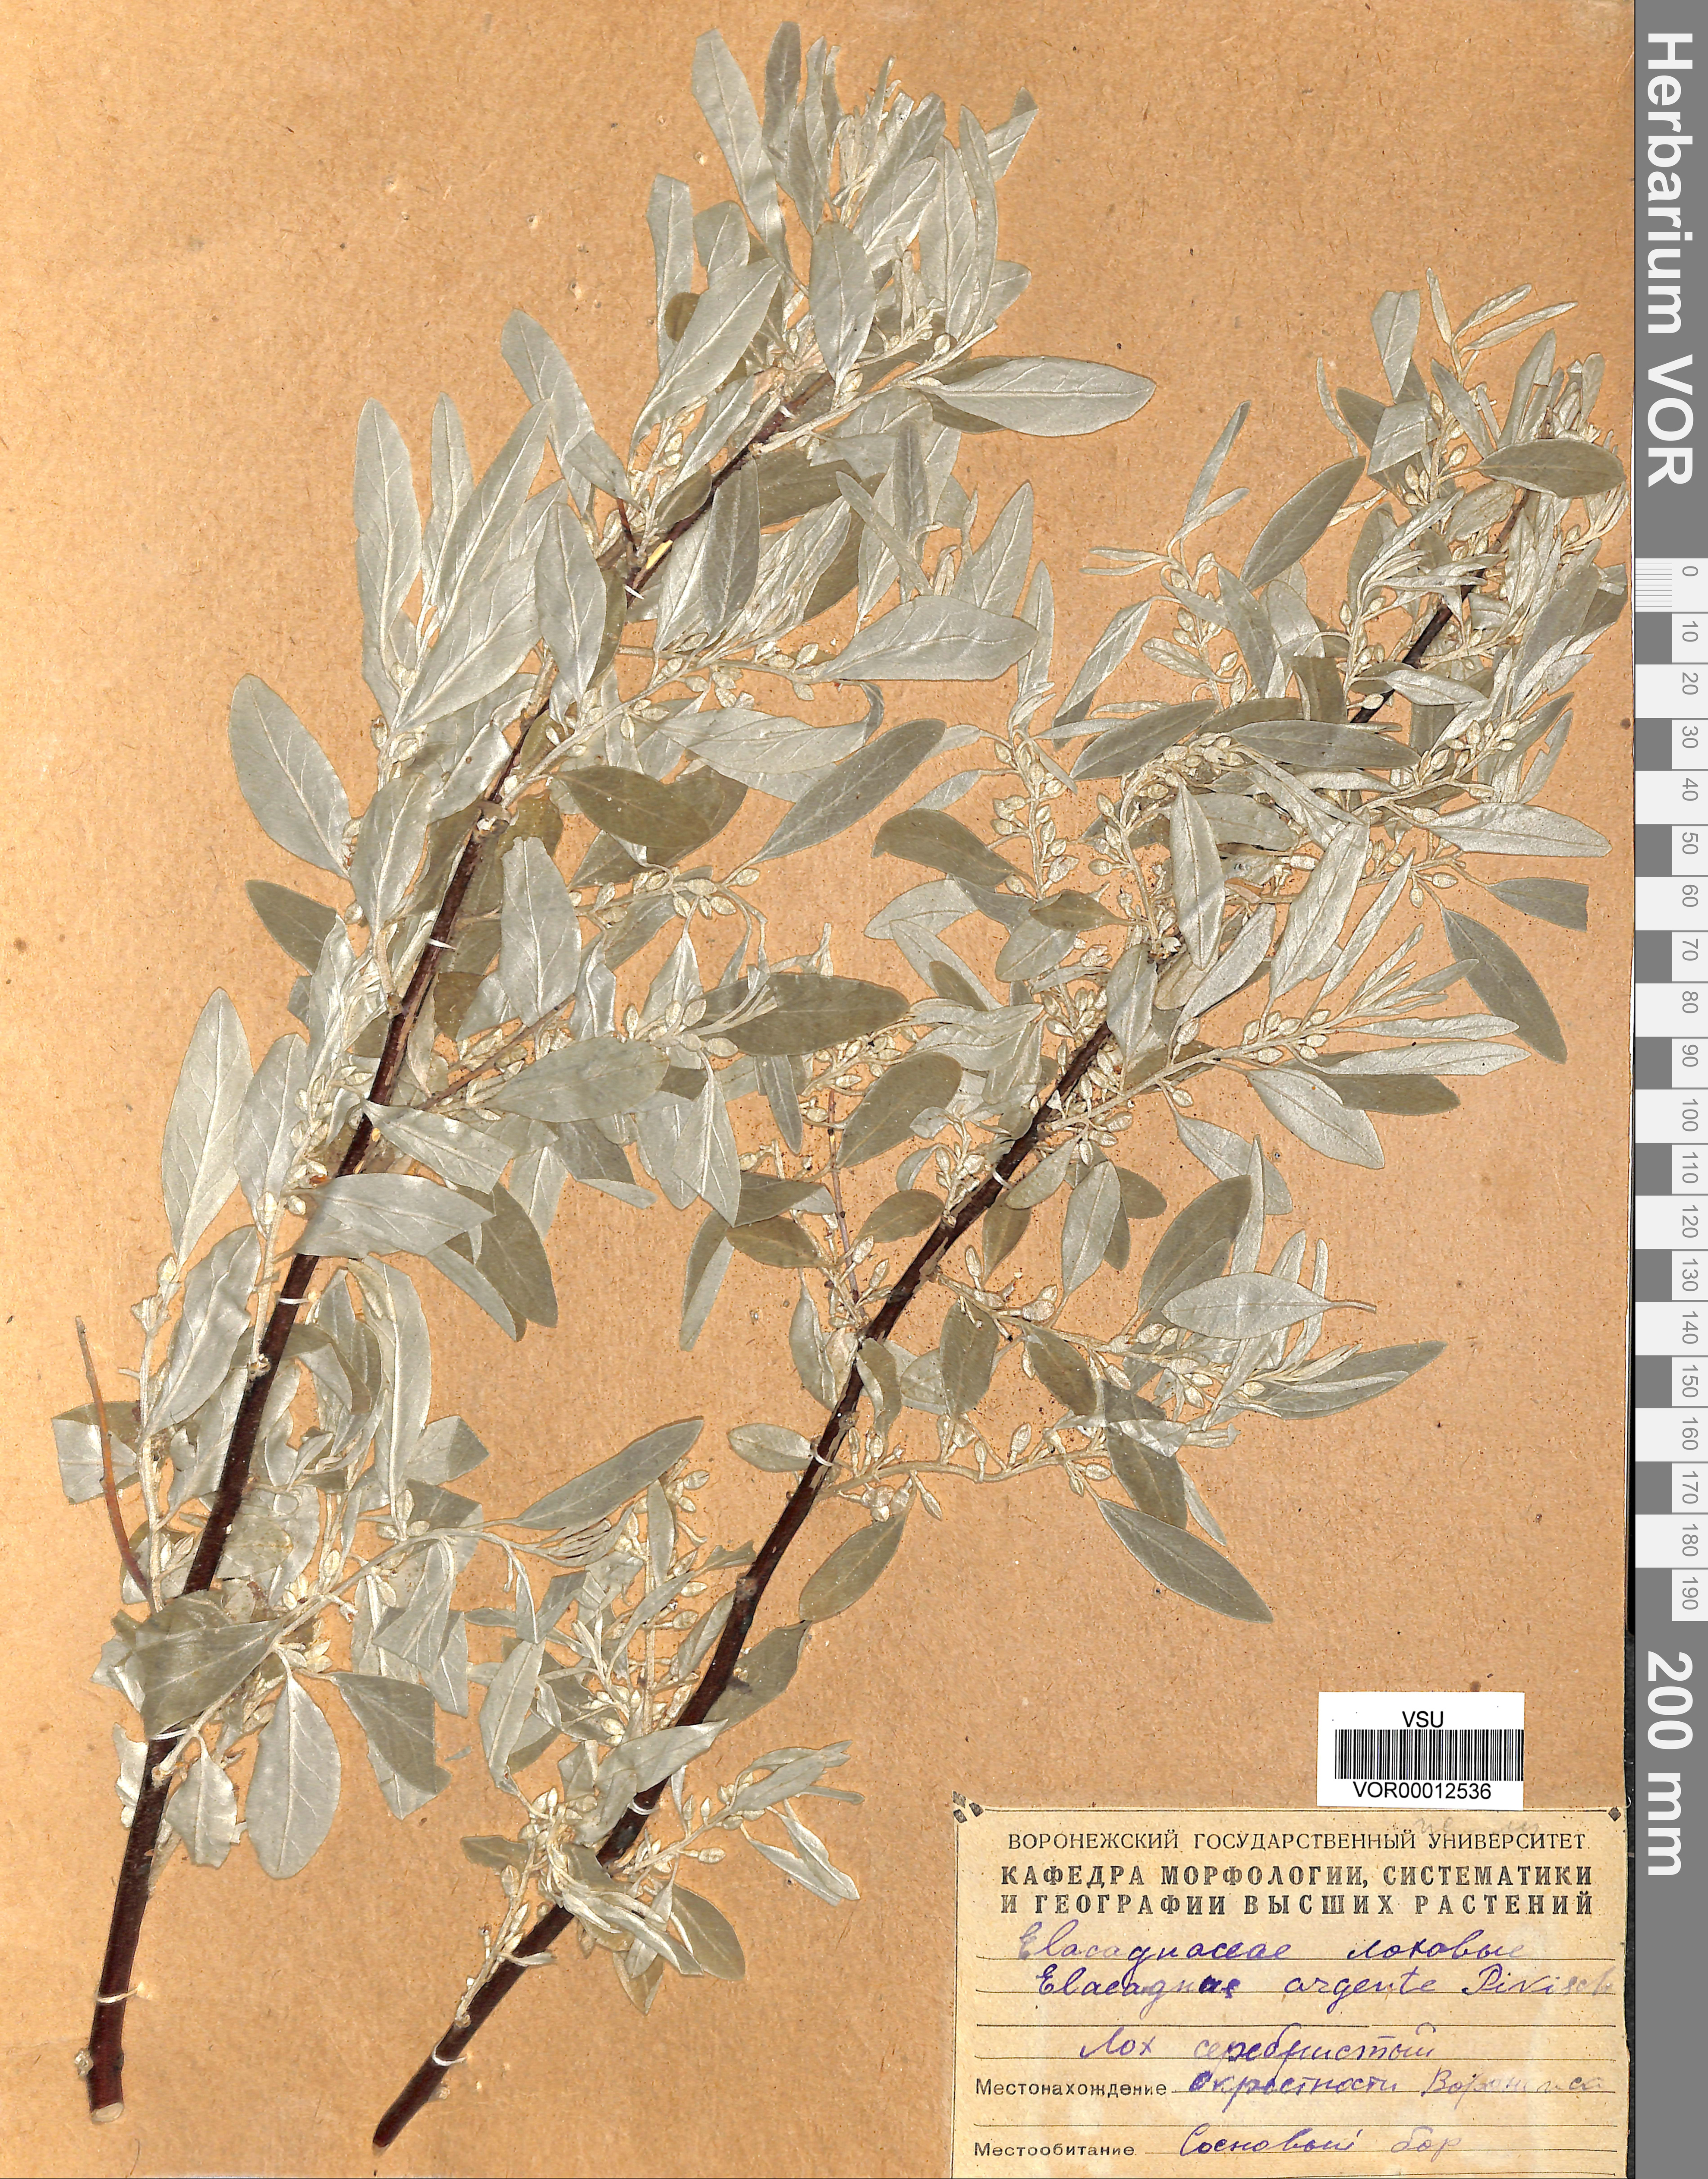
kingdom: Plantae
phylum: Tracheophyta
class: Magnoliopsida
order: Rosales
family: Elaeagnaceae
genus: Elaeagnus
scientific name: Elaeagnus angustifolia
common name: Russian olive
